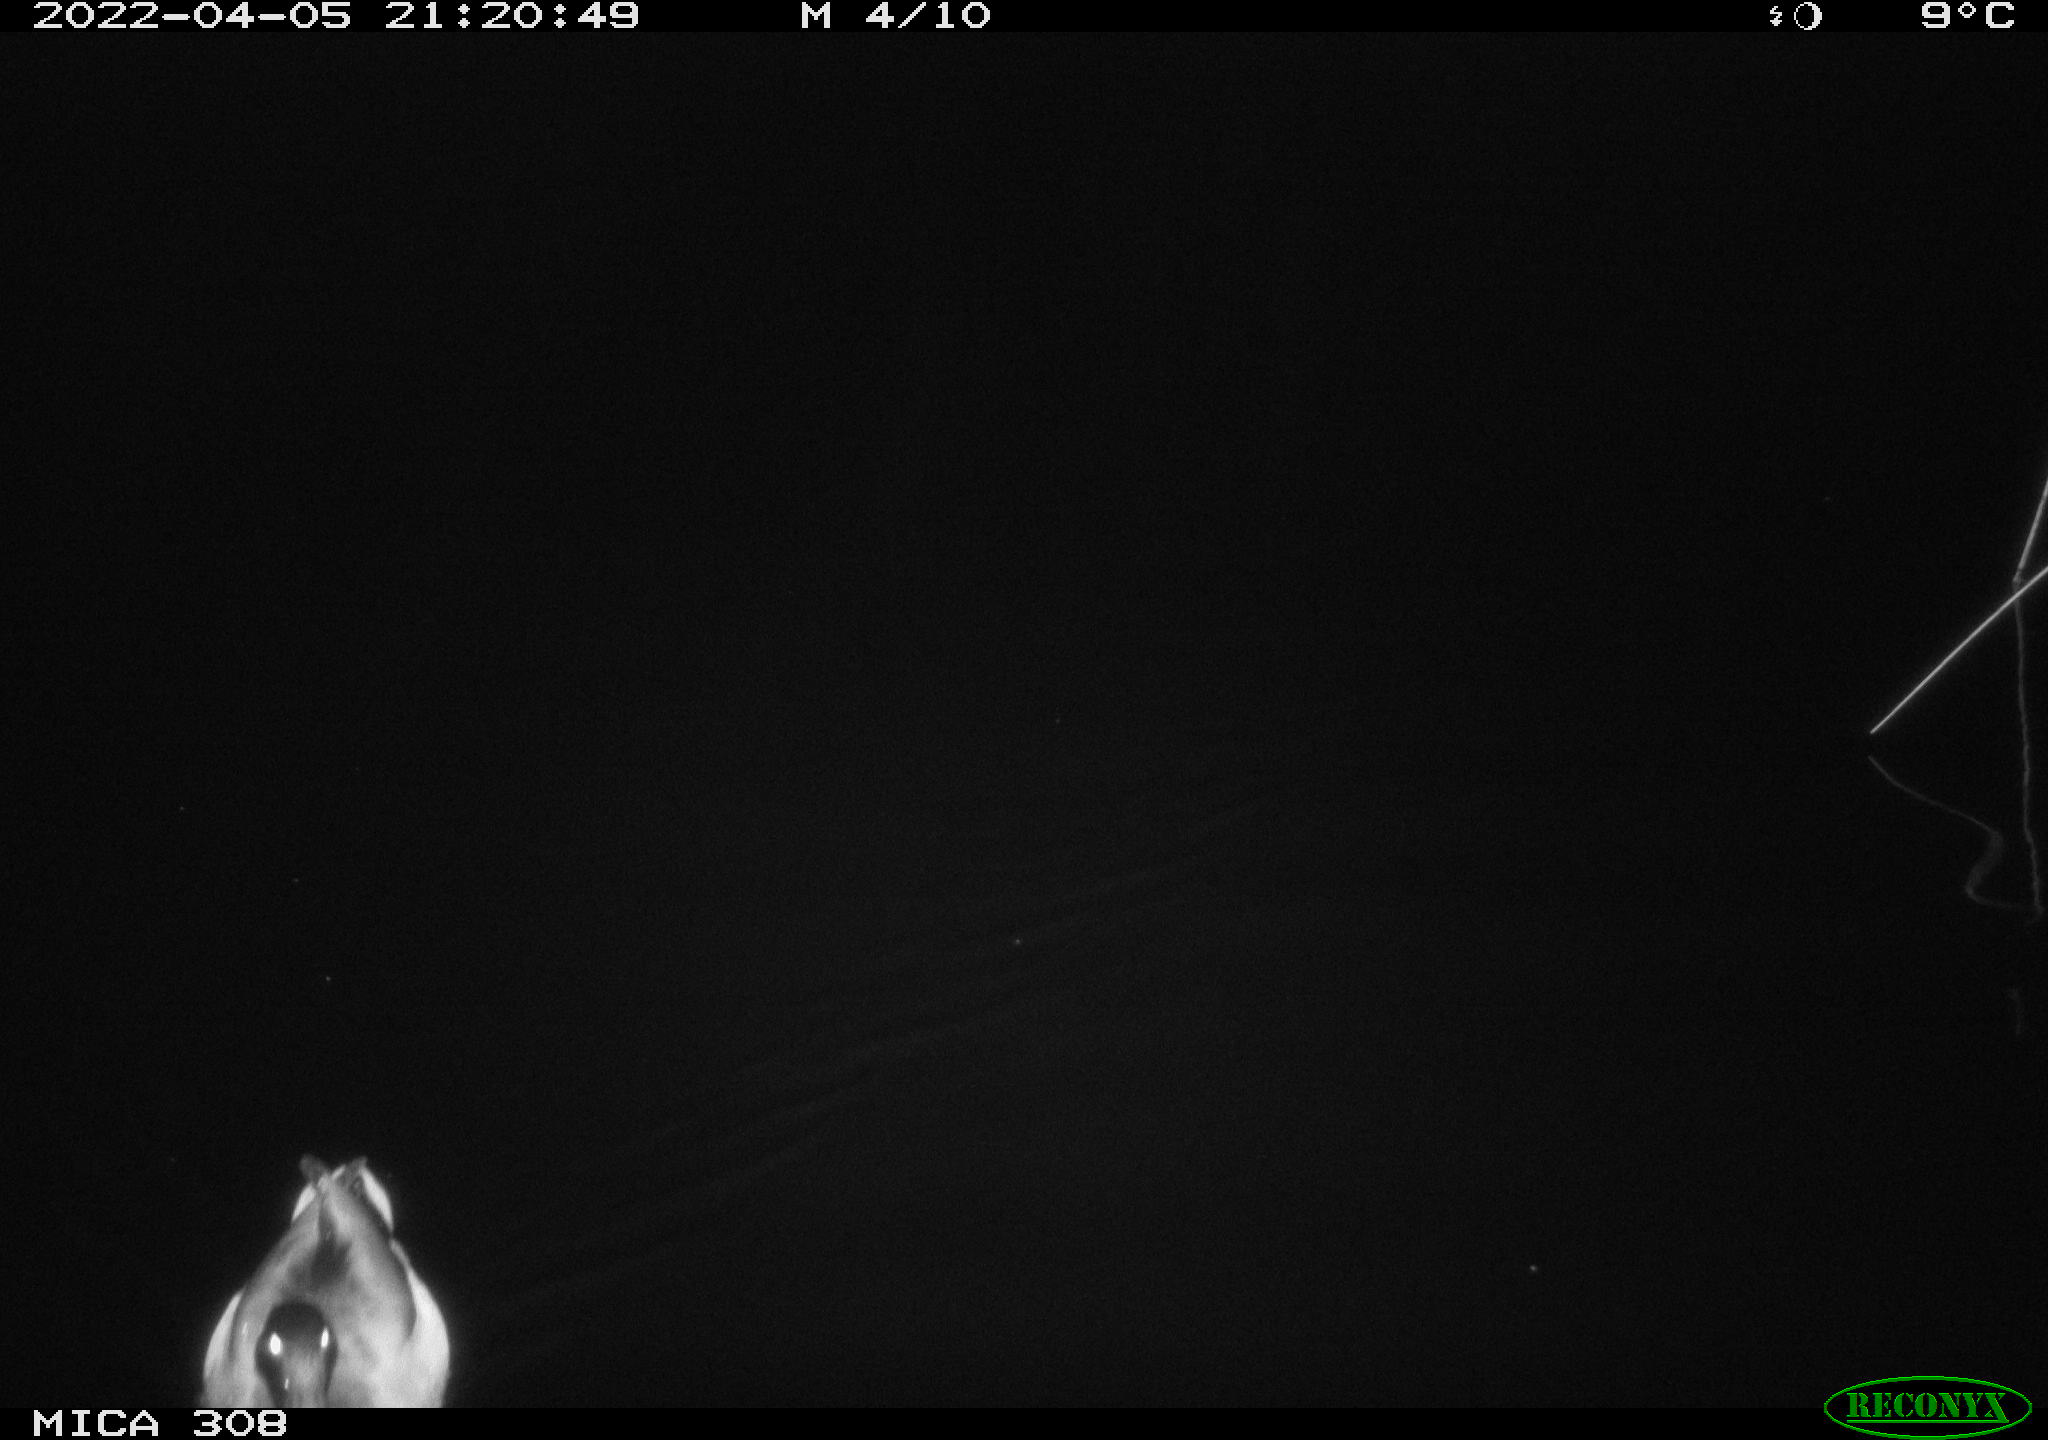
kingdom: Animalia
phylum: Chordata
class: Aves
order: Anseriformes
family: Anatidae
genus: Anas
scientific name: Anas platyrhynchos
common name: Mallard
